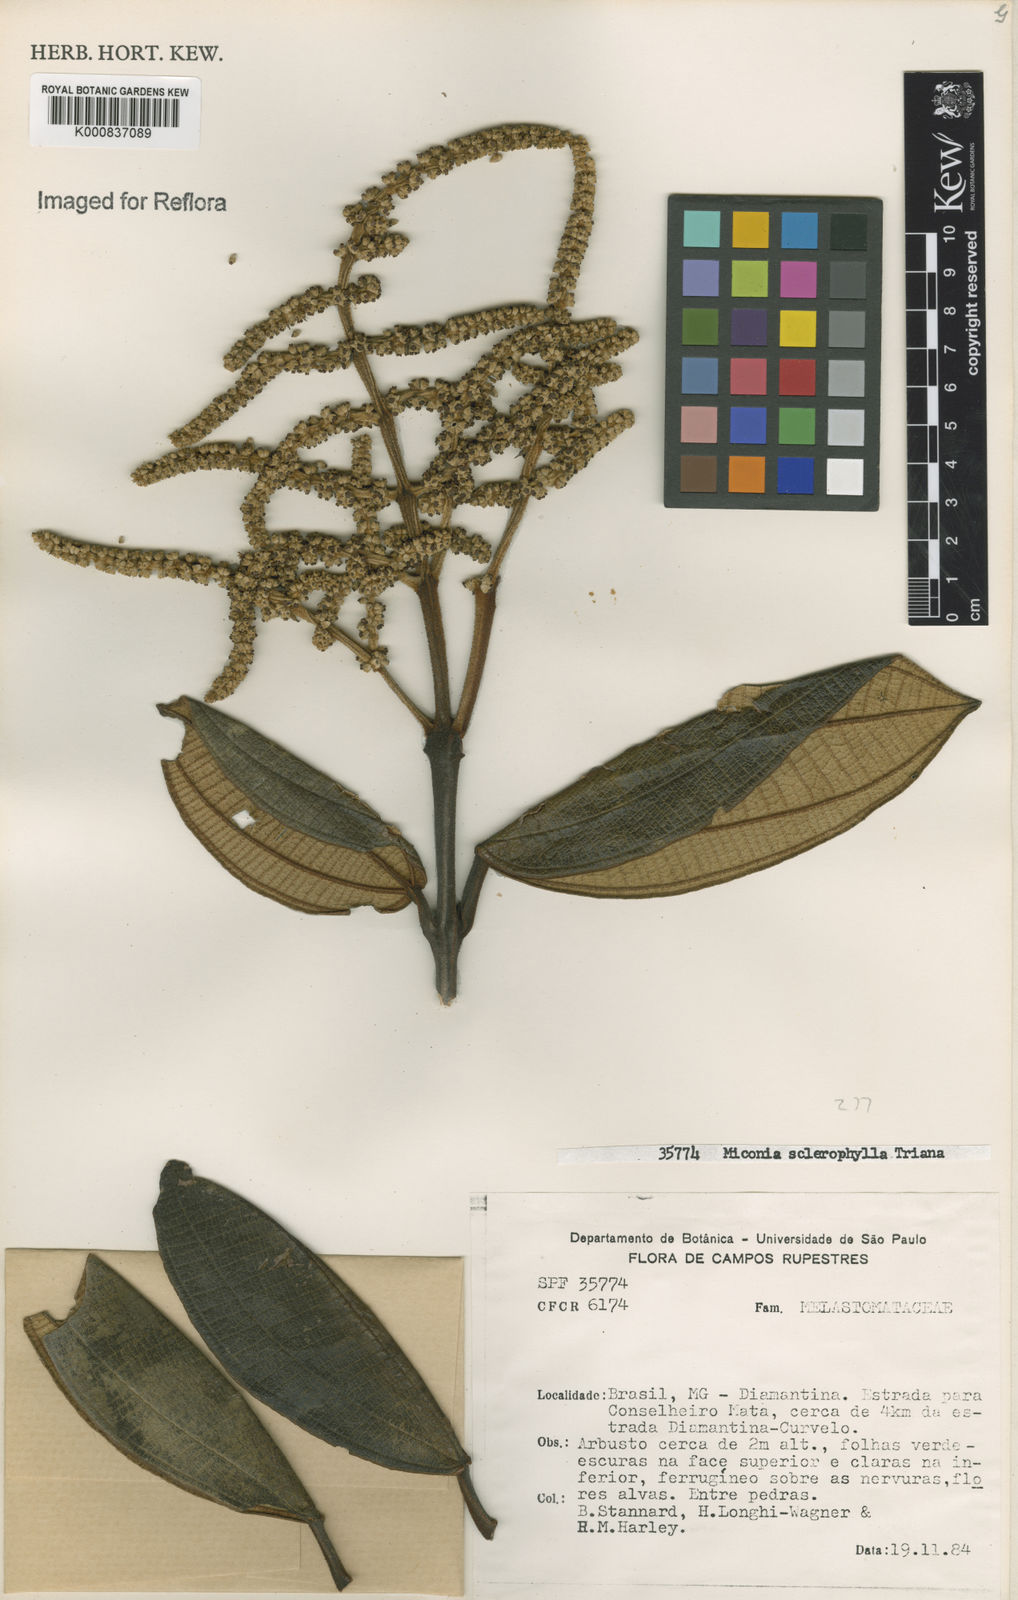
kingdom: Plantae
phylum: Tracheophyta
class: Magnoliopsida
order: Myrtales
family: Melastomataceae
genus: Miconia
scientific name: Miconia sclerophylla
